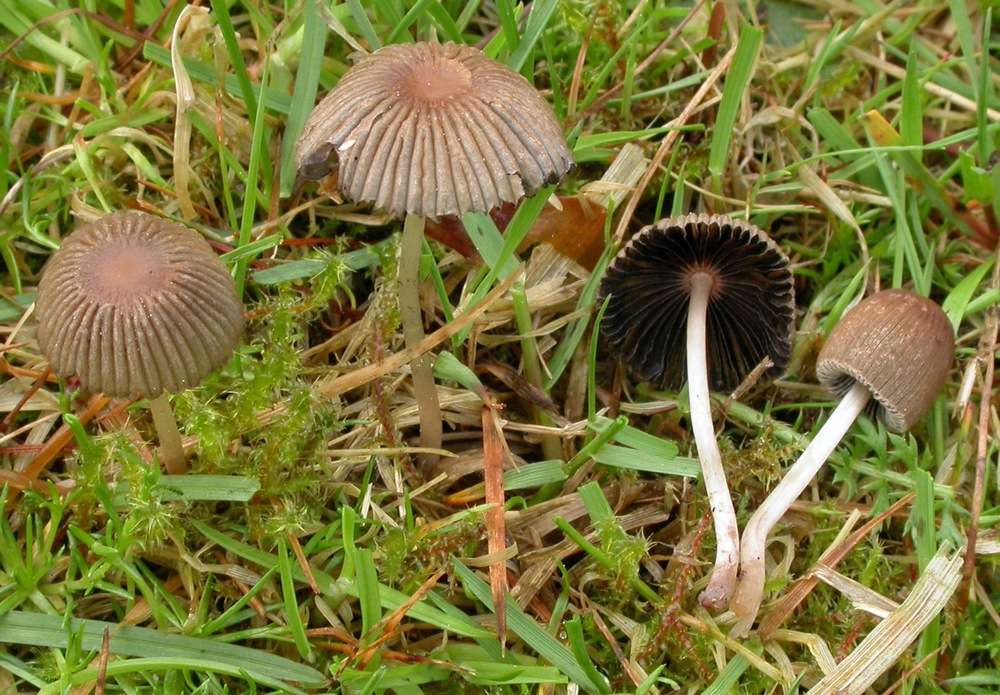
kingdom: Fungi
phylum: Basidiomycota
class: Agaricomycetes
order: Agaricales
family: Psathyrellaceae
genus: Parasola
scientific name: Parasola schroeteri
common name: bredsporet hjulhat
